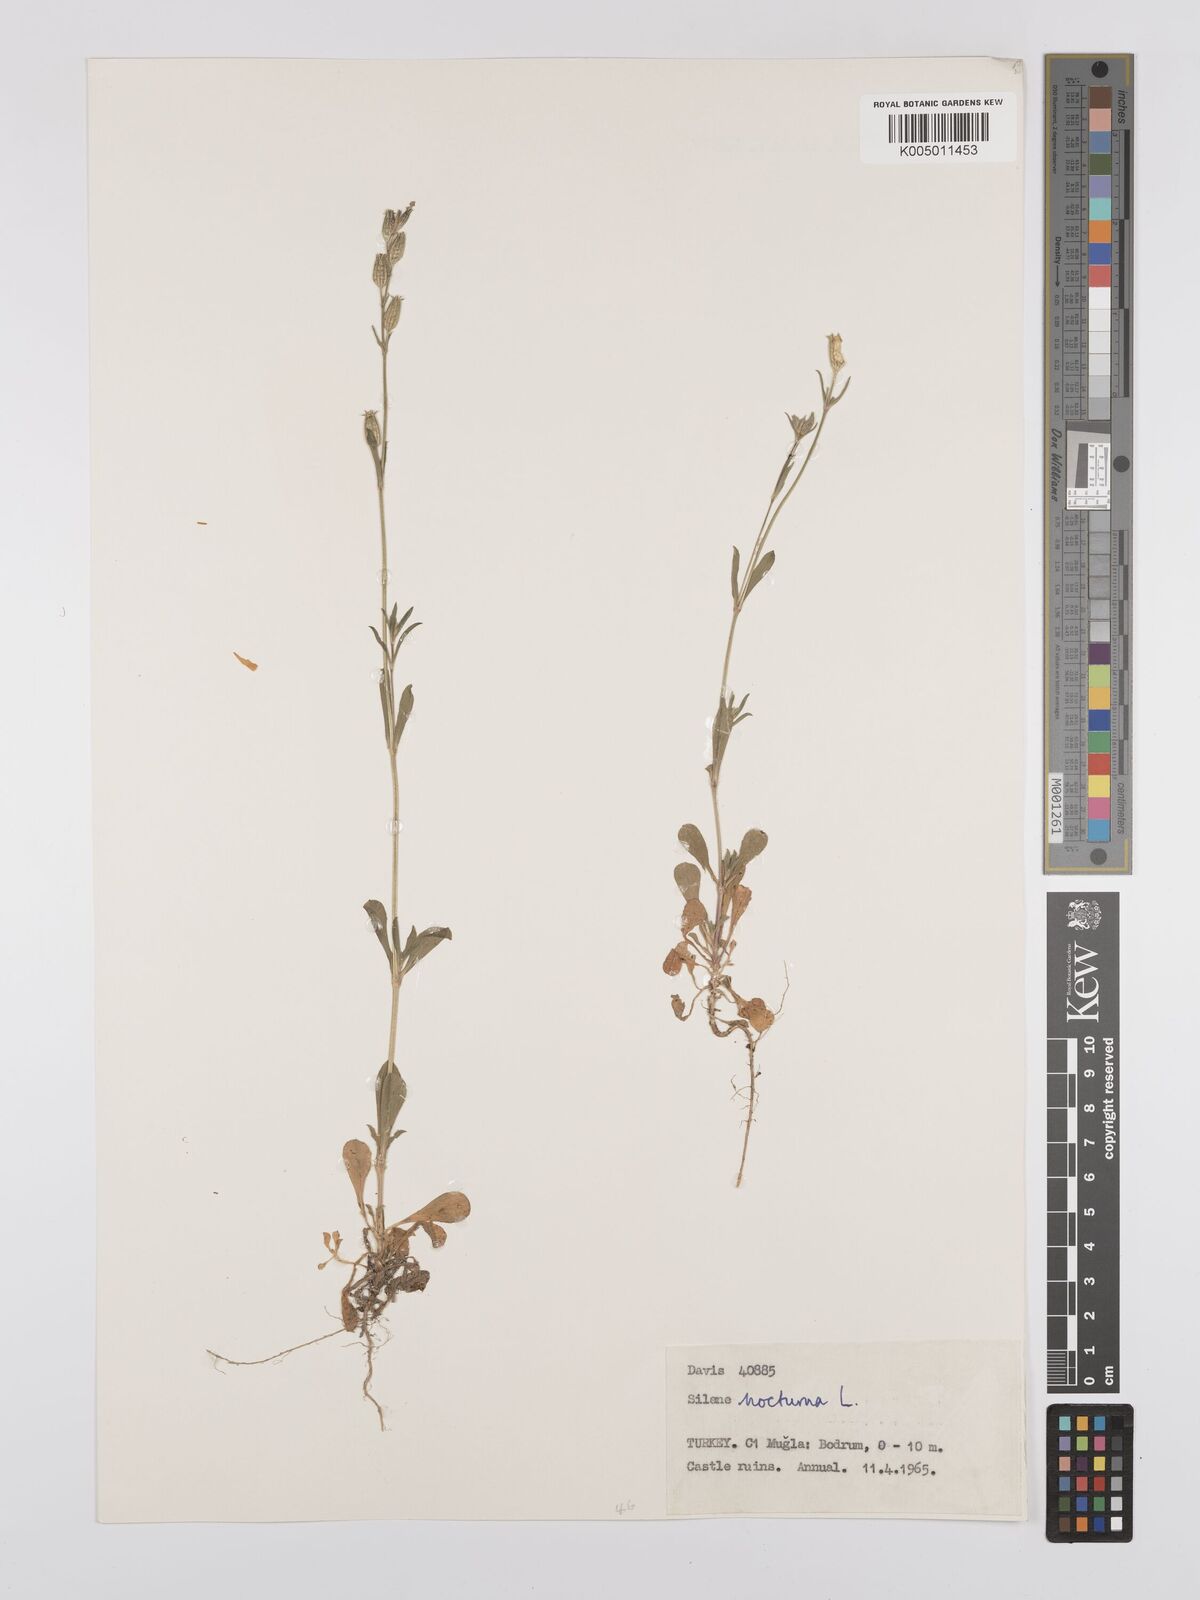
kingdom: Plantae
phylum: Tracheophyta
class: Magnoliopsida
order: Caryophyllales
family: Caryophyllaceae
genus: Silene
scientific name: Silene nocturna
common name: Mediterranean catchfly
